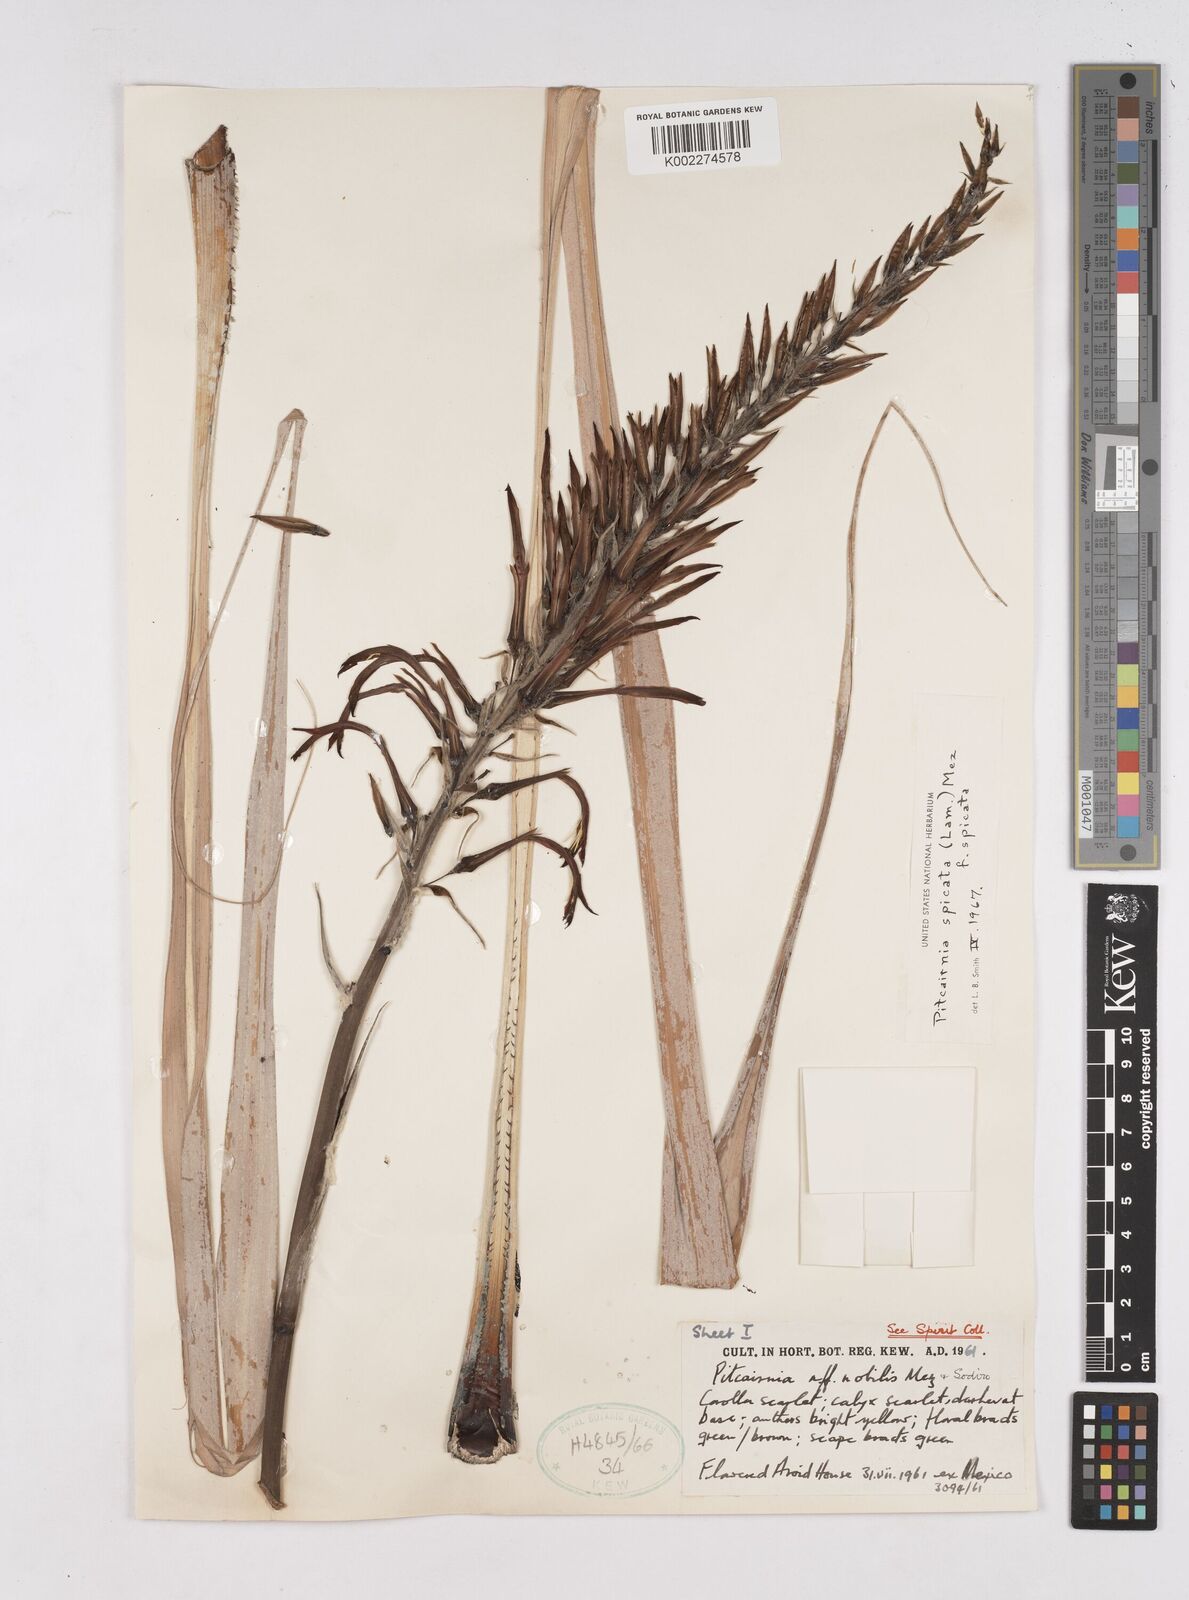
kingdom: Plantae
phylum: Tracheophyta
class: Liliopsida
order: Poales
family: Bromeliaceae
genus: Pitcairnia
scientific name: Pitcairnia spicata
